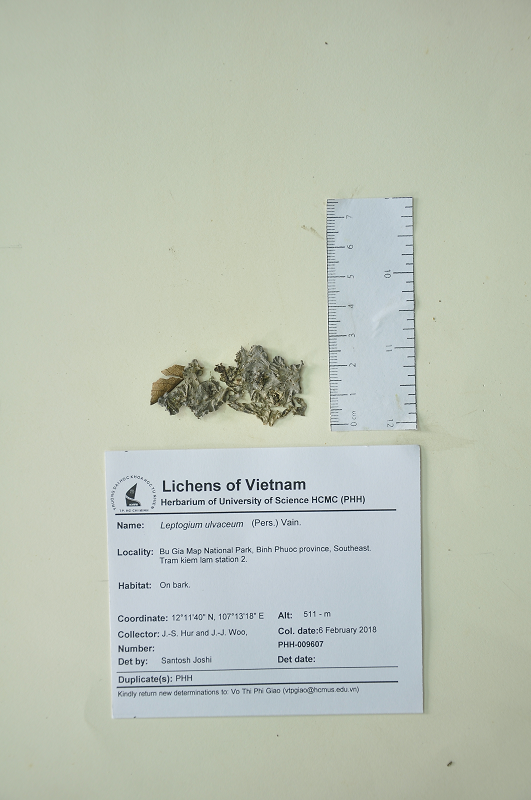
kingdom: Fungi
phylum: Ascomycota
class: Lecanoromycetes
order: Peltigerales
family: Collemataceae
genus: Leptogium
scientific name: Leptogium ulvaceum
